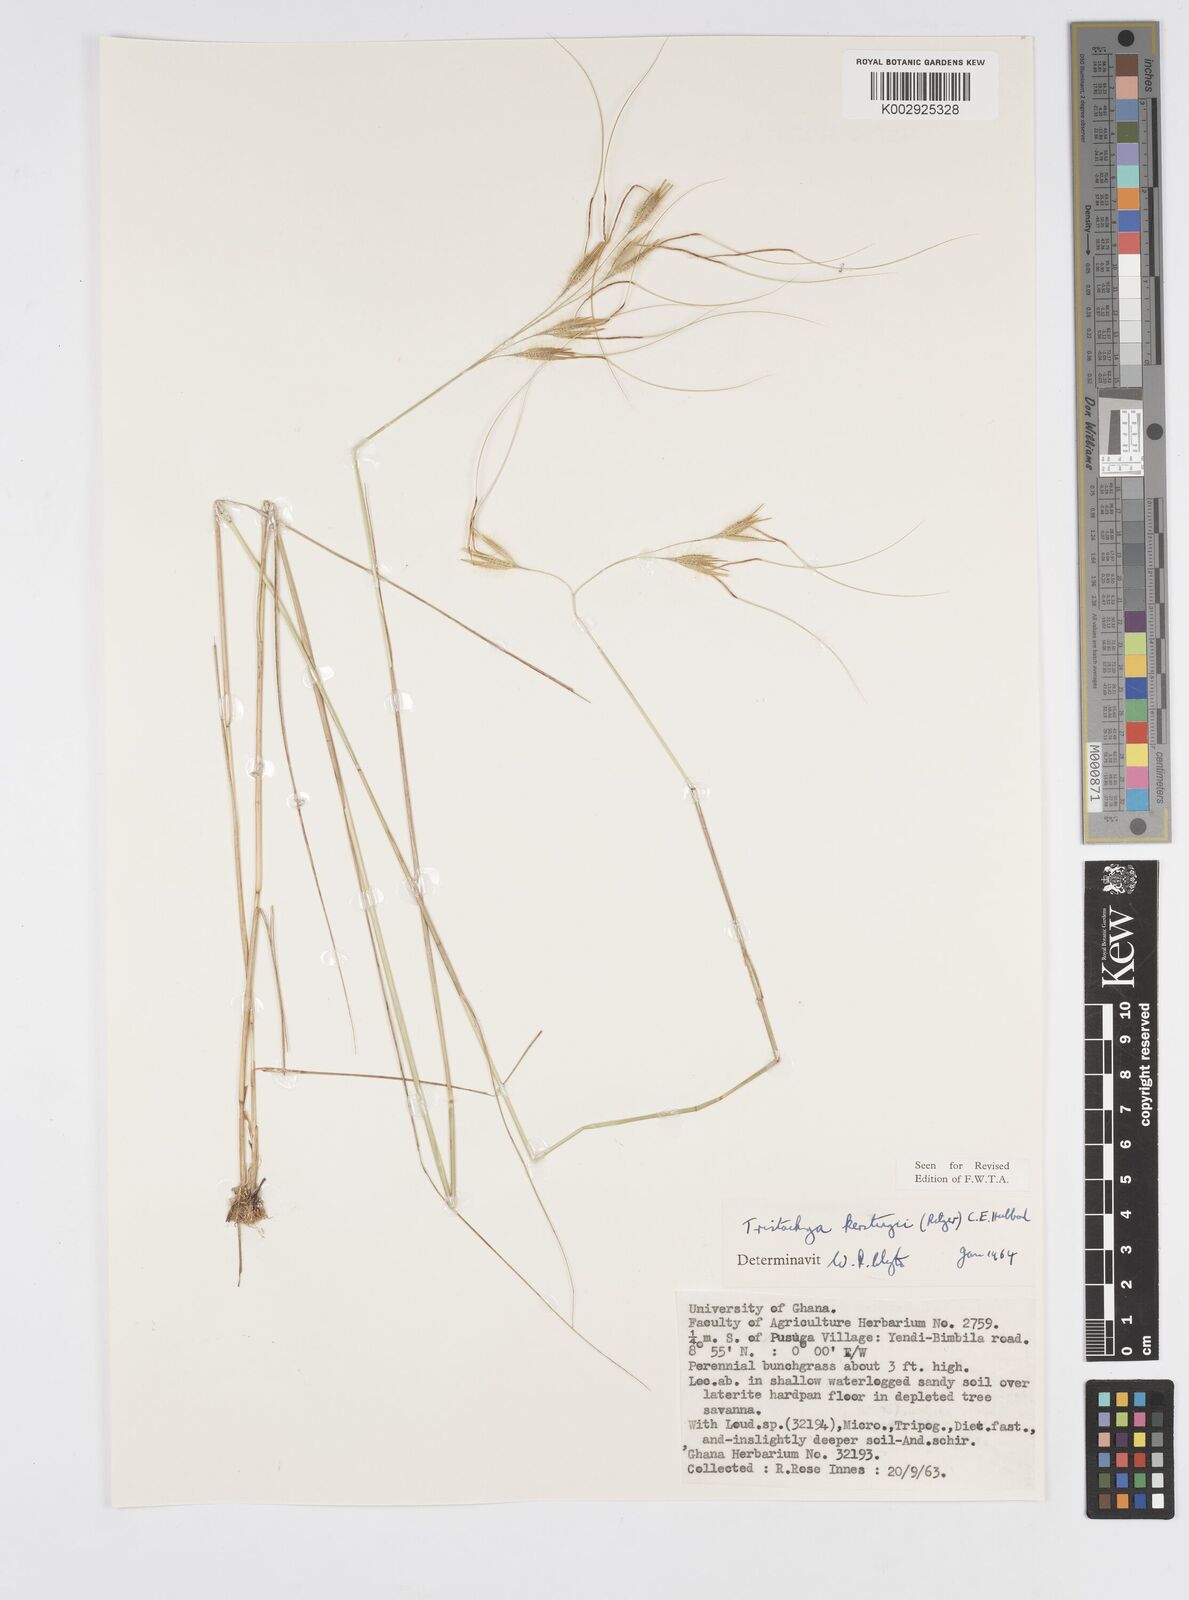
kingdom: Plantae
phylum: Tracheophyta
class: Liliopsida
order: Poales
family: Poaceae
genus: Loudetiopsis
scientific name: Loudetiopsis kerstingii
